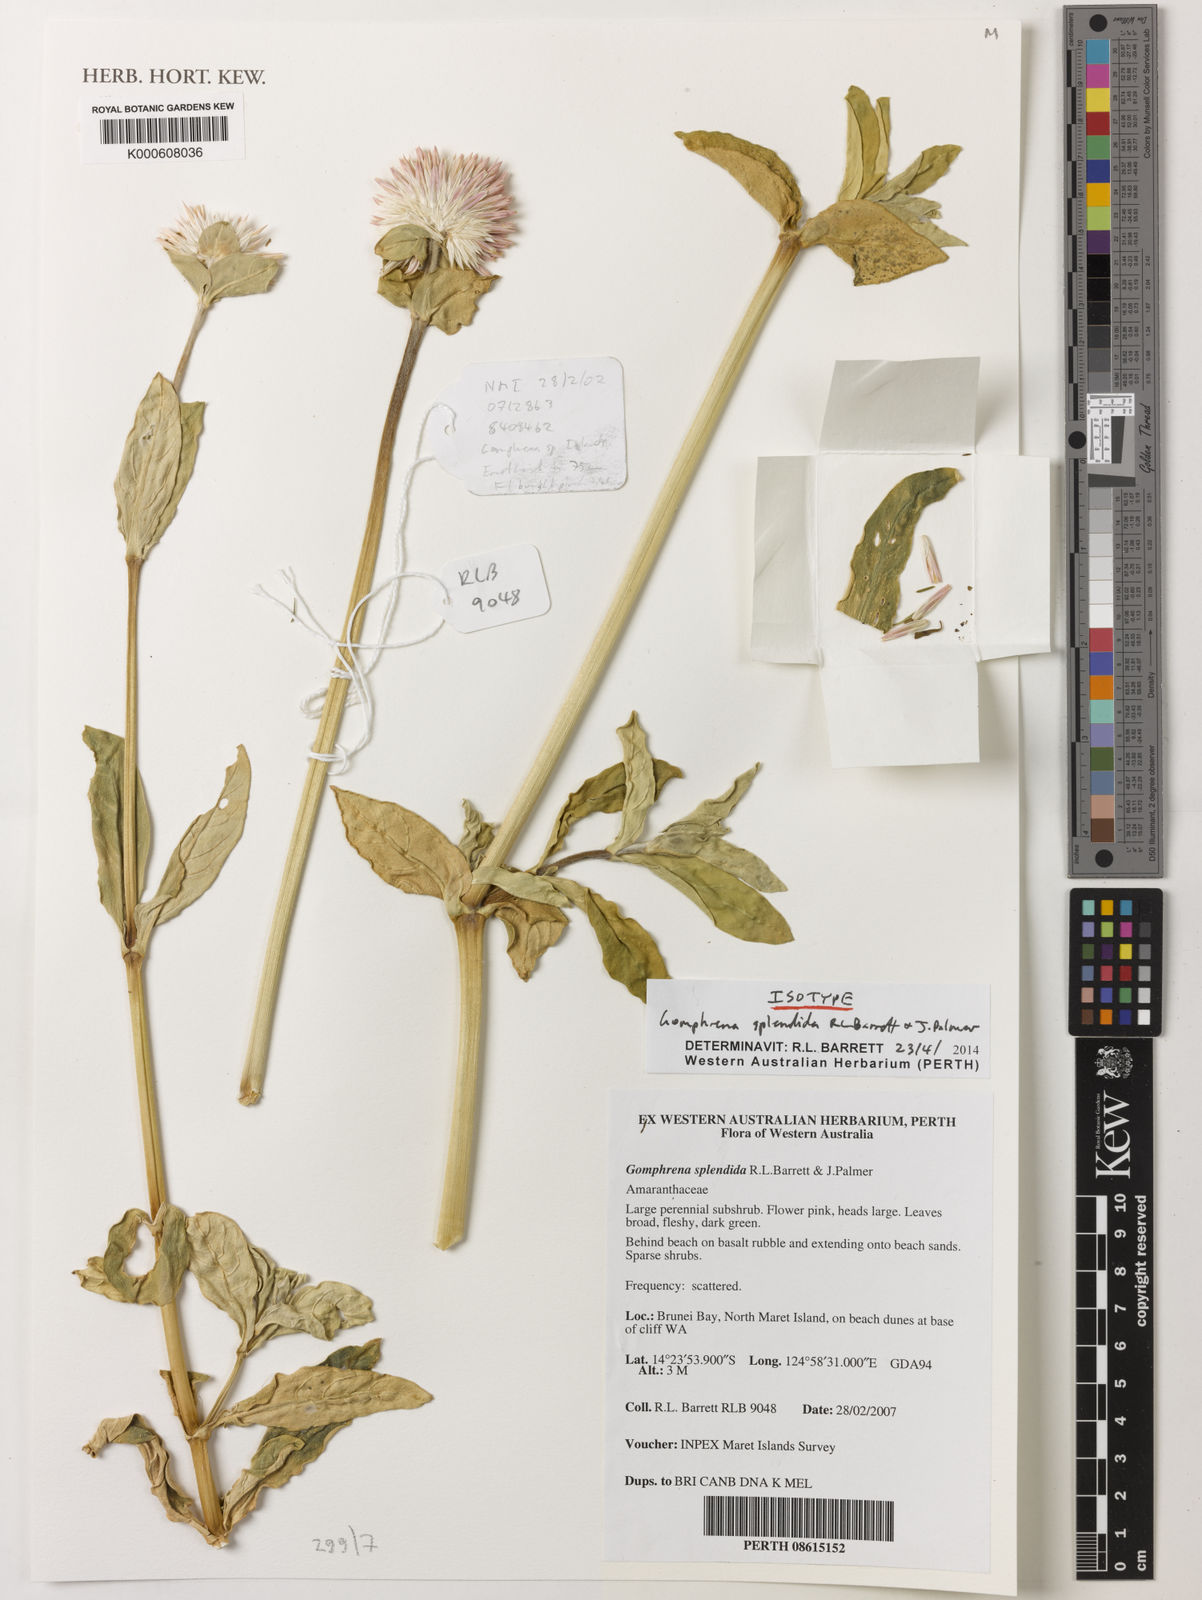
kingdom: Plantae
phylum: Tracheophyta
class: Magnoliopsida
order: Caryophyllales
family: Amaranthaceae
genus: Gomphrena
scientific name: Gomphrena splendida
